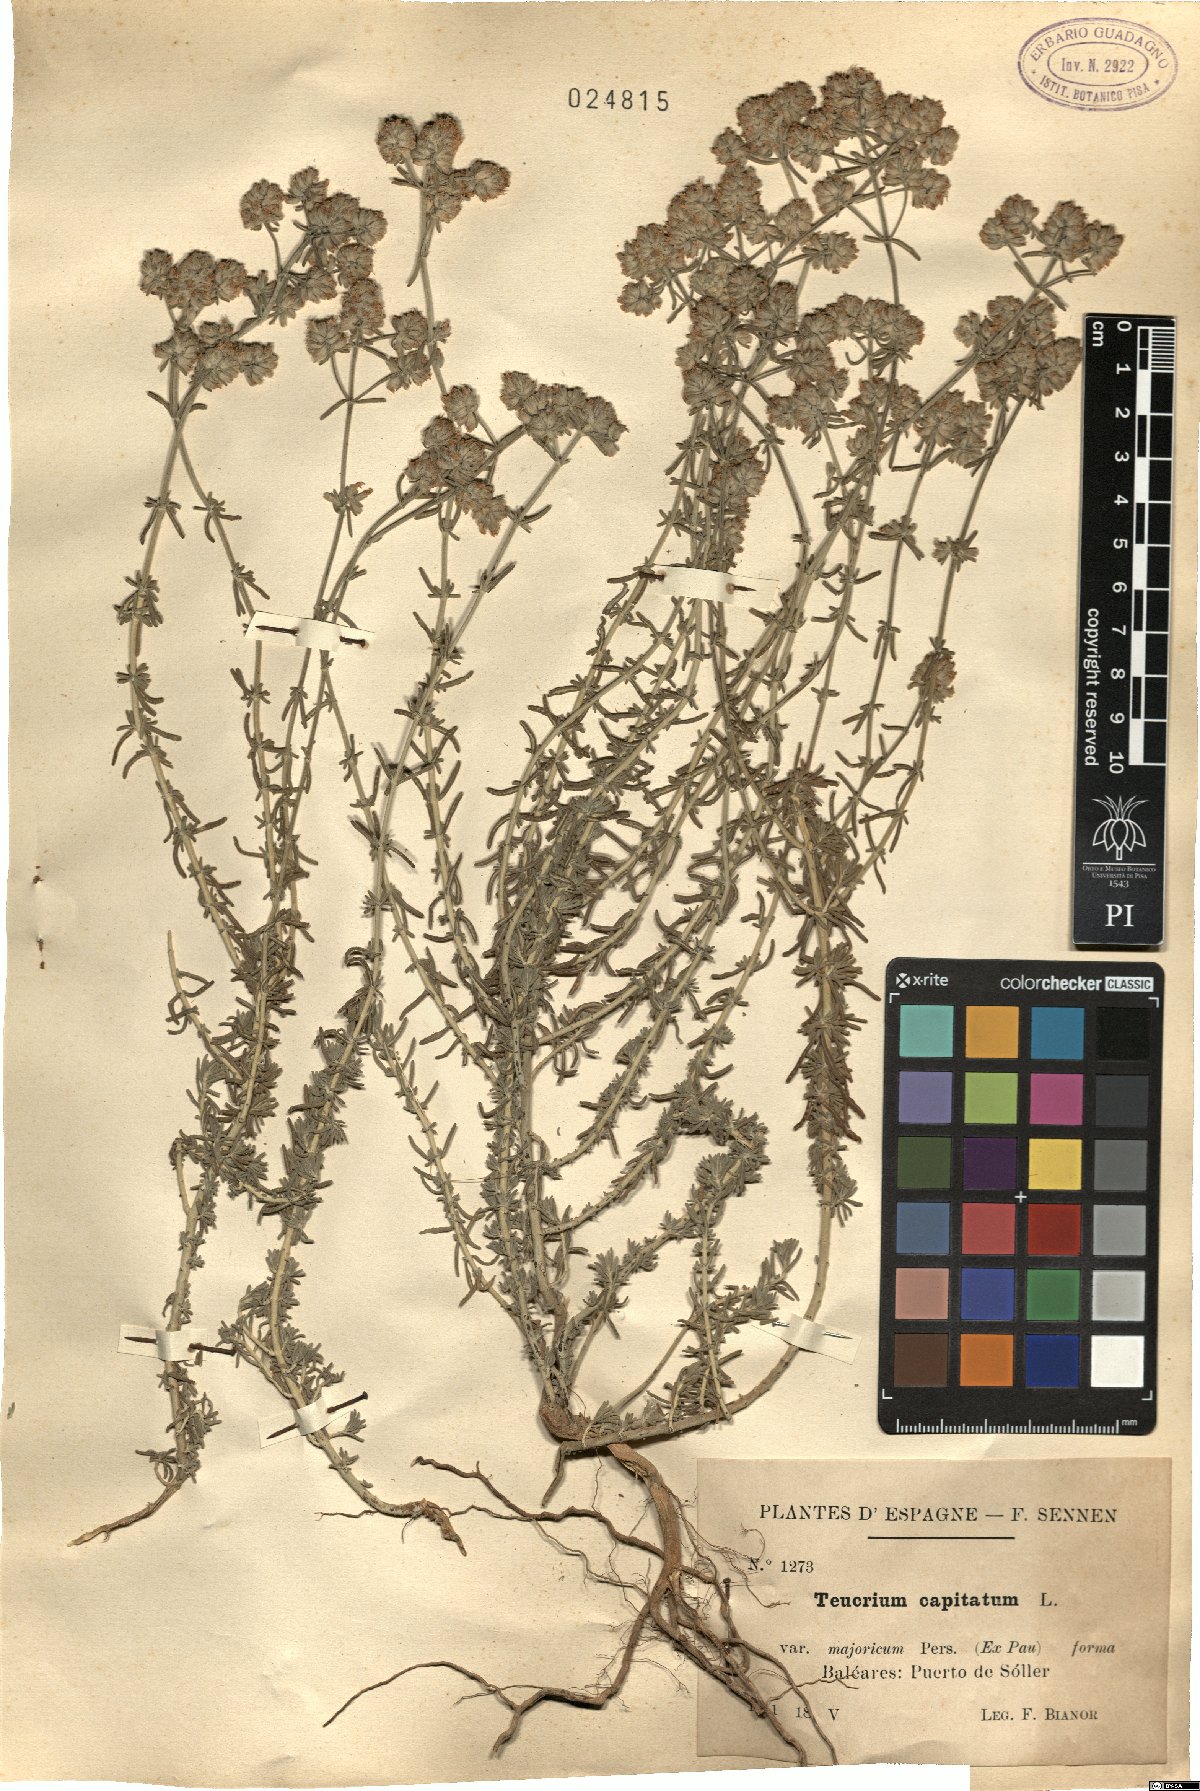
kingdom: Plantae
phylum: Tracheophyta
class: Magnoliopsida
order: Lamiales
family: Lamiaceae
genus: Teucrium
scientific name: Teucrium capitatum
